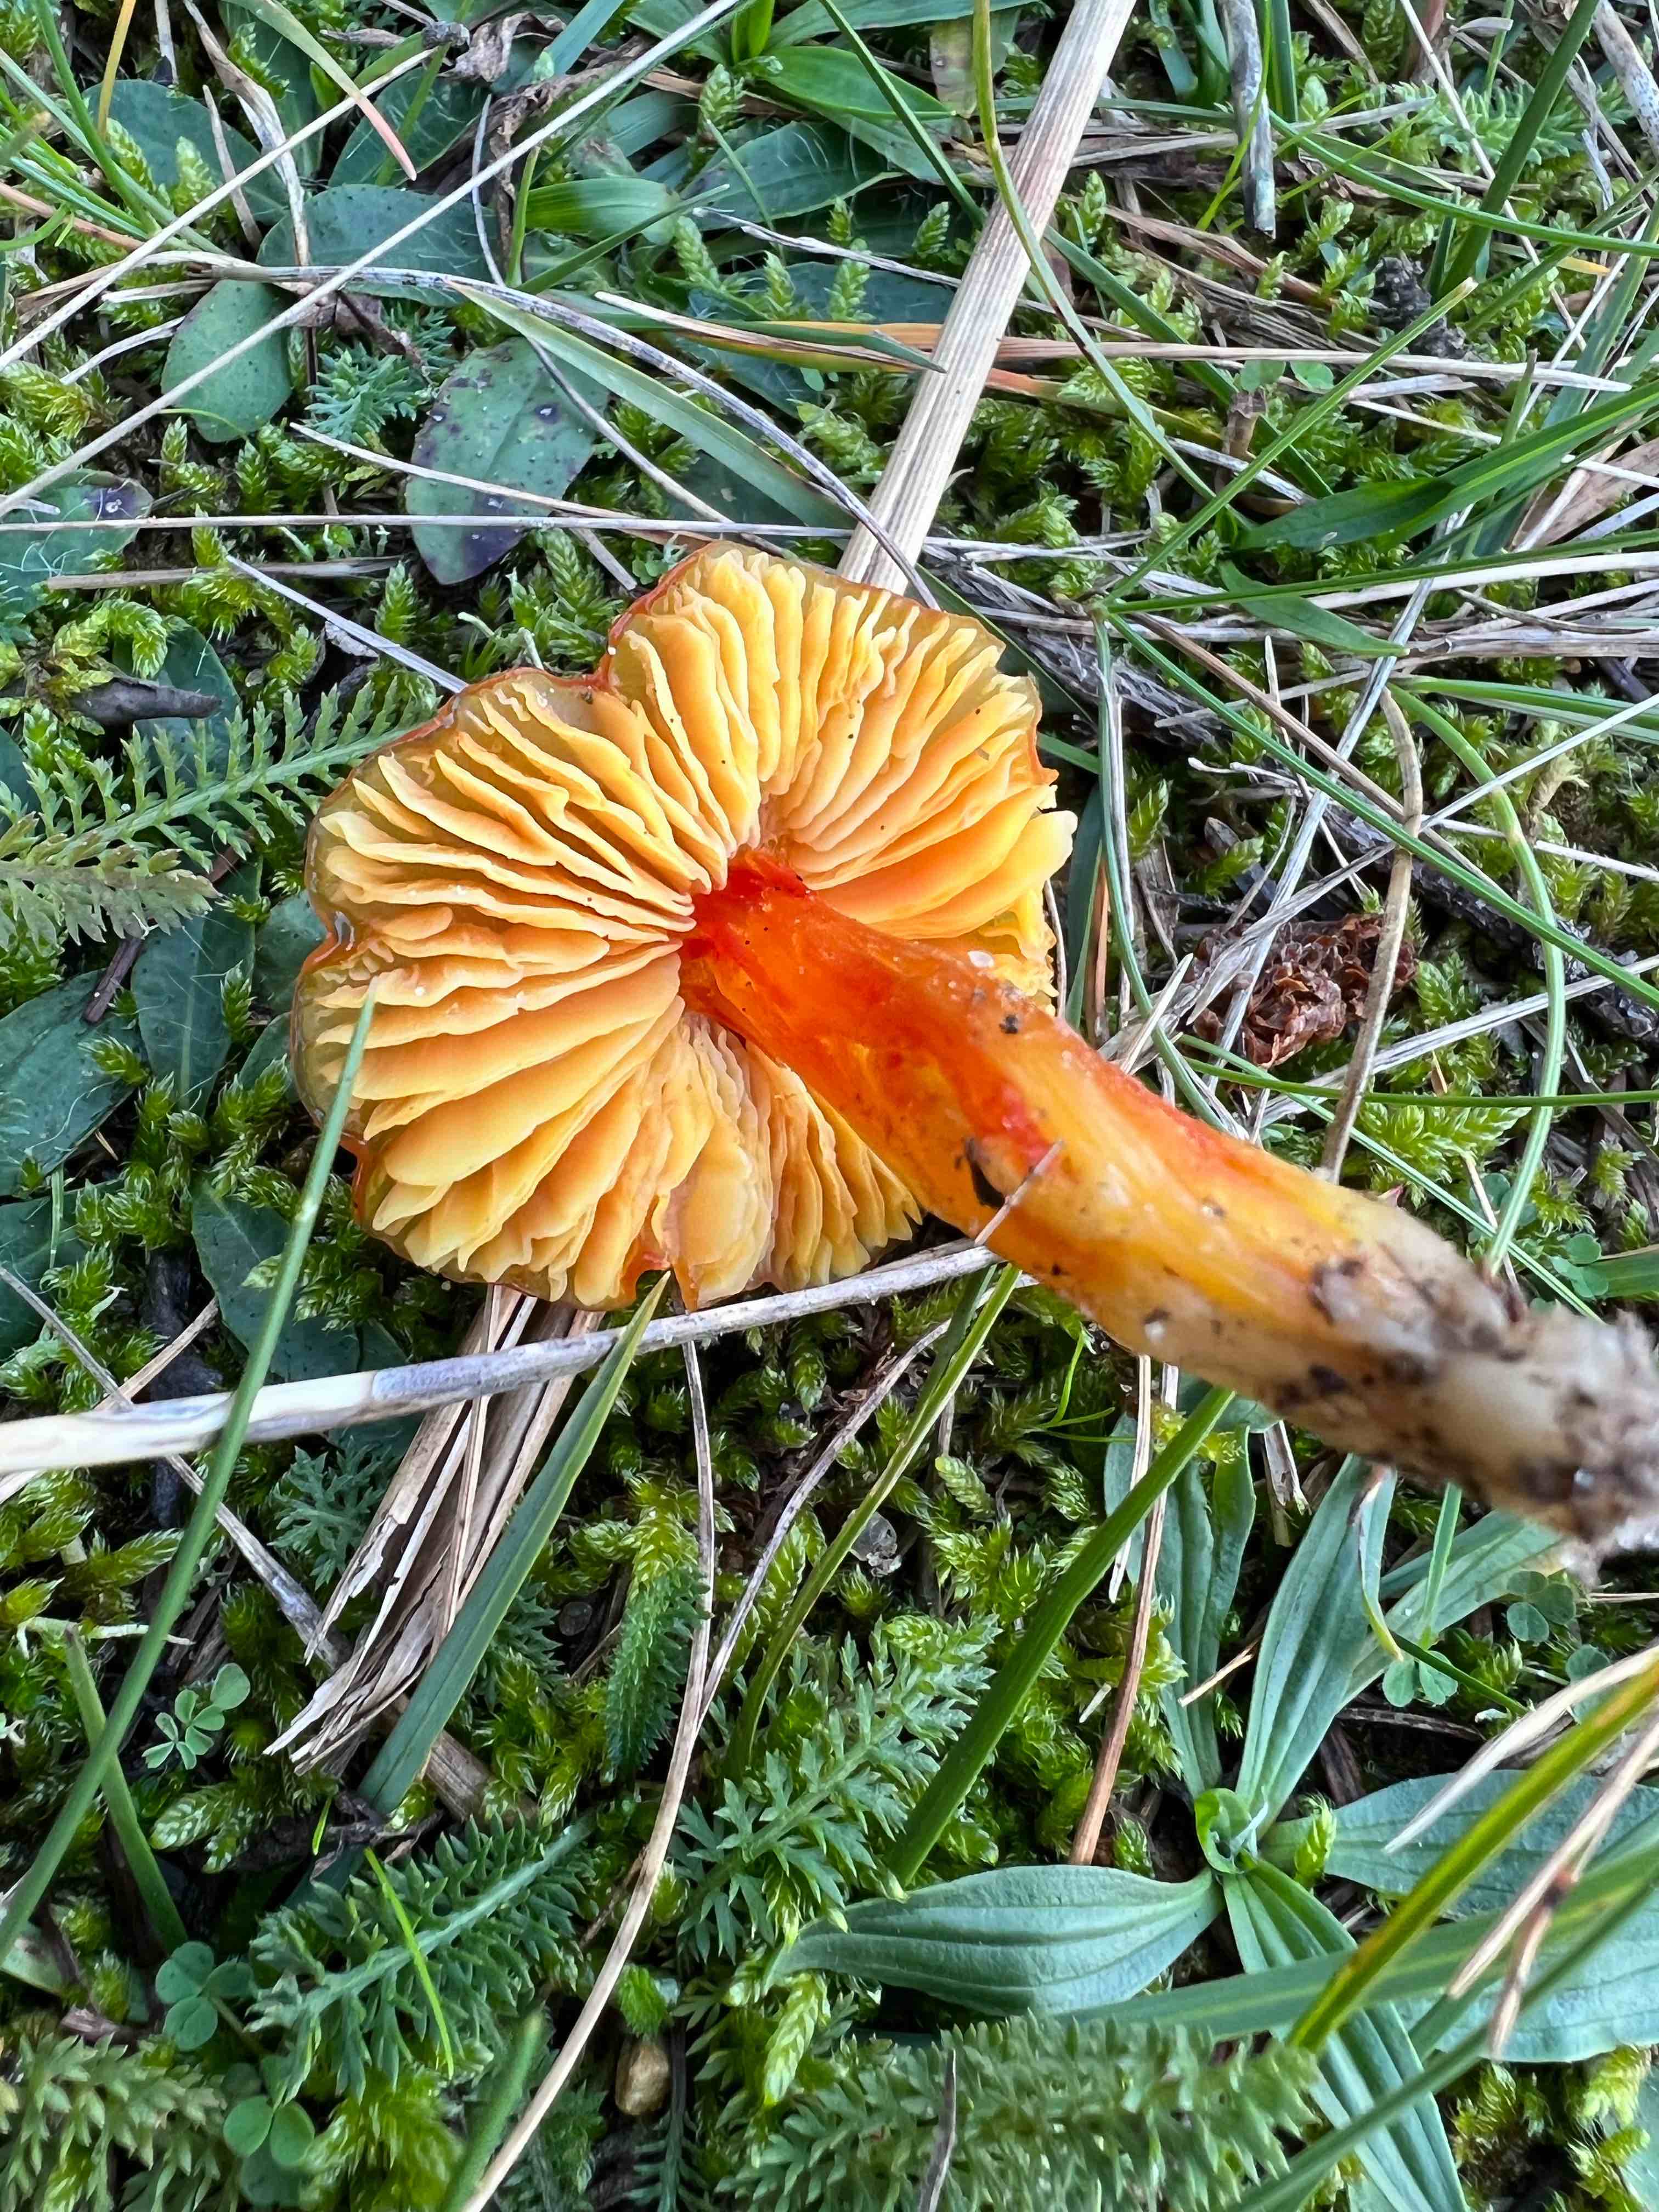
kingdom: Fungi
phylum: Basidiomycota
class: Agaricomycetes
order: Agaricales
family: Hygrophoraceae
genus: Hygrocybe
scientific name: Hygrocybe
